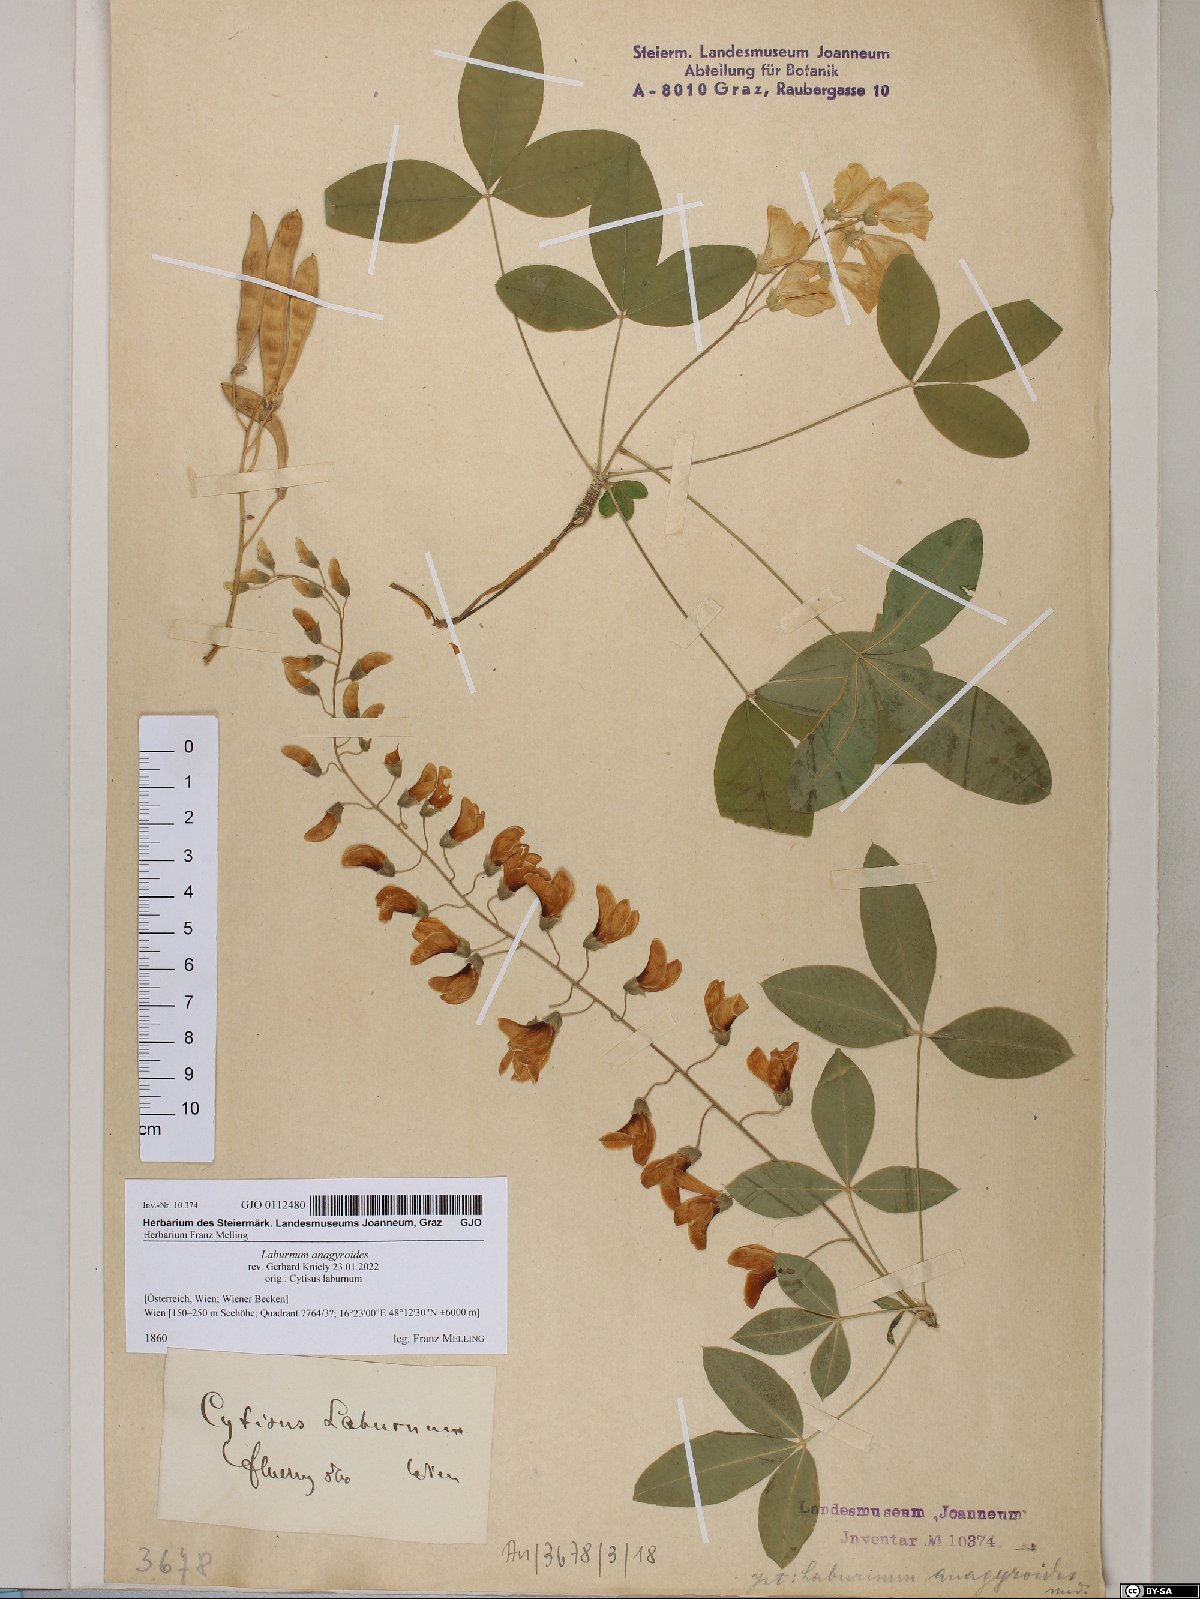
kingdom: Plantae
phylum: Tracheophyta
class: Magnoliopsida
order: Fabales
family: Fabaceae
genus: Laburnum
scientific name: Laburnum anagyroides
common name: Laburnum
